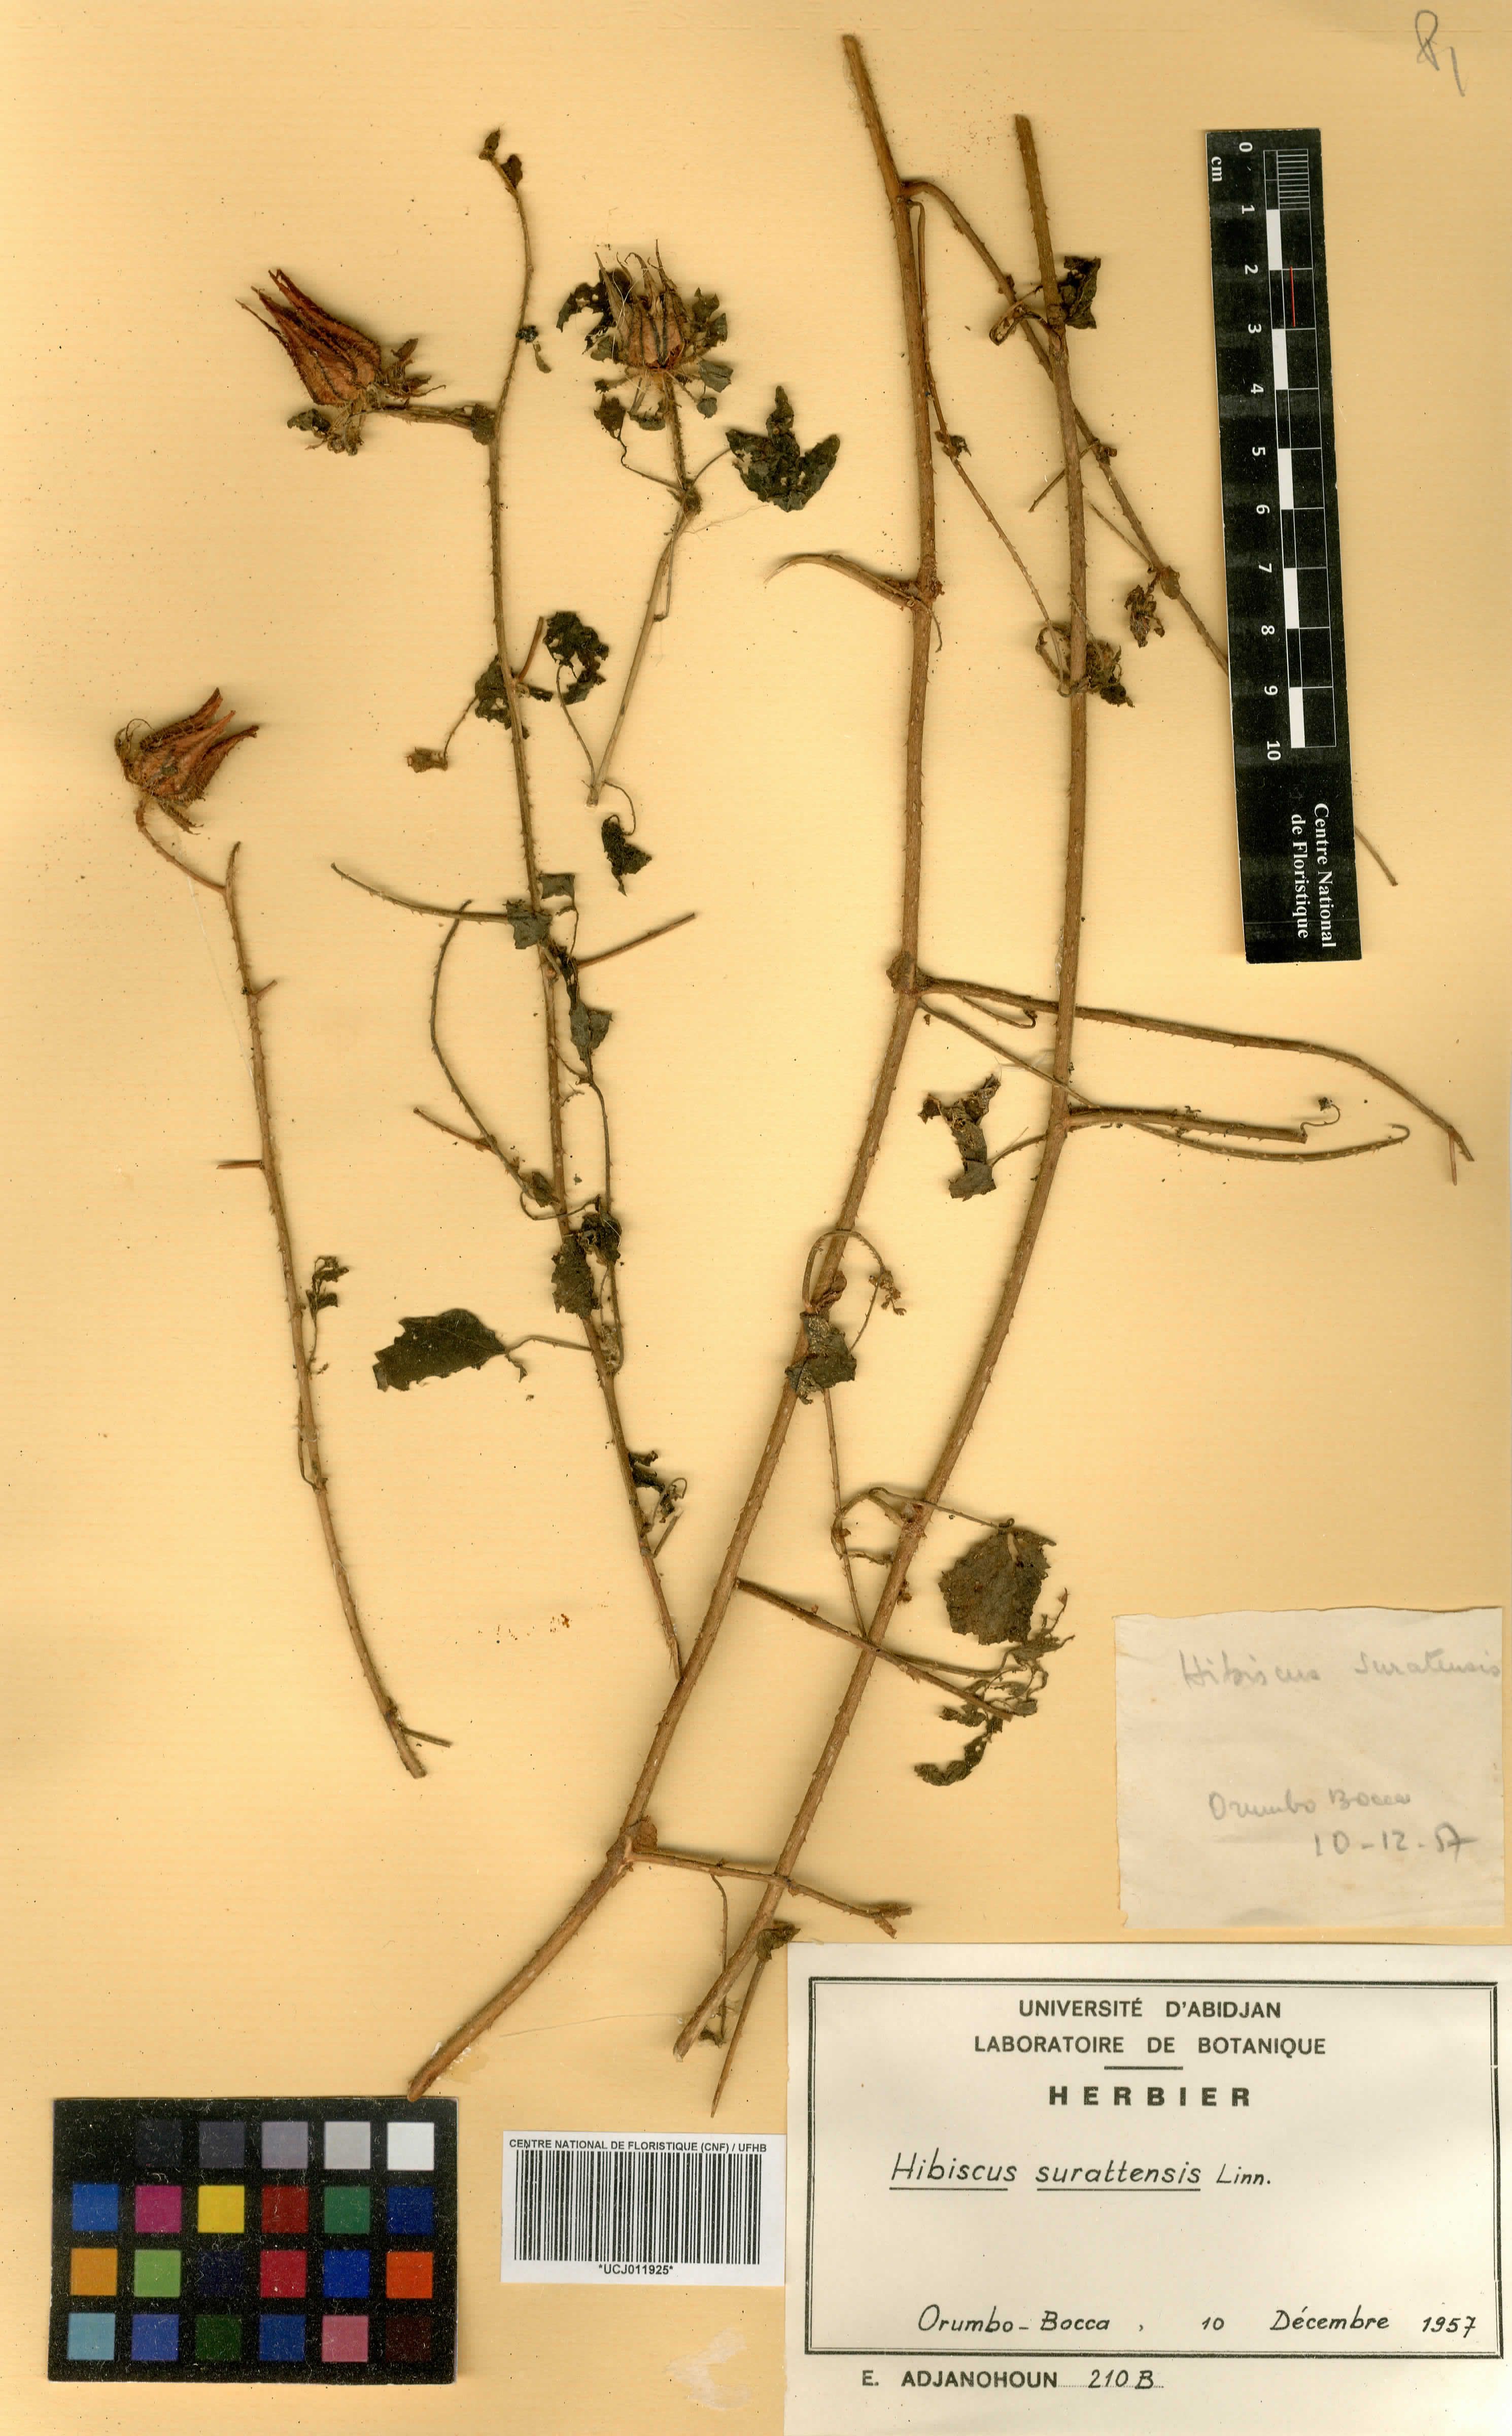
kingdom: Plantae
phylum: Tracheophyta
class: Magnoliopsida
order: Malvales
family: Malvaceae
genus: Hibiscus
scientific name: Hibiscus surattensis
